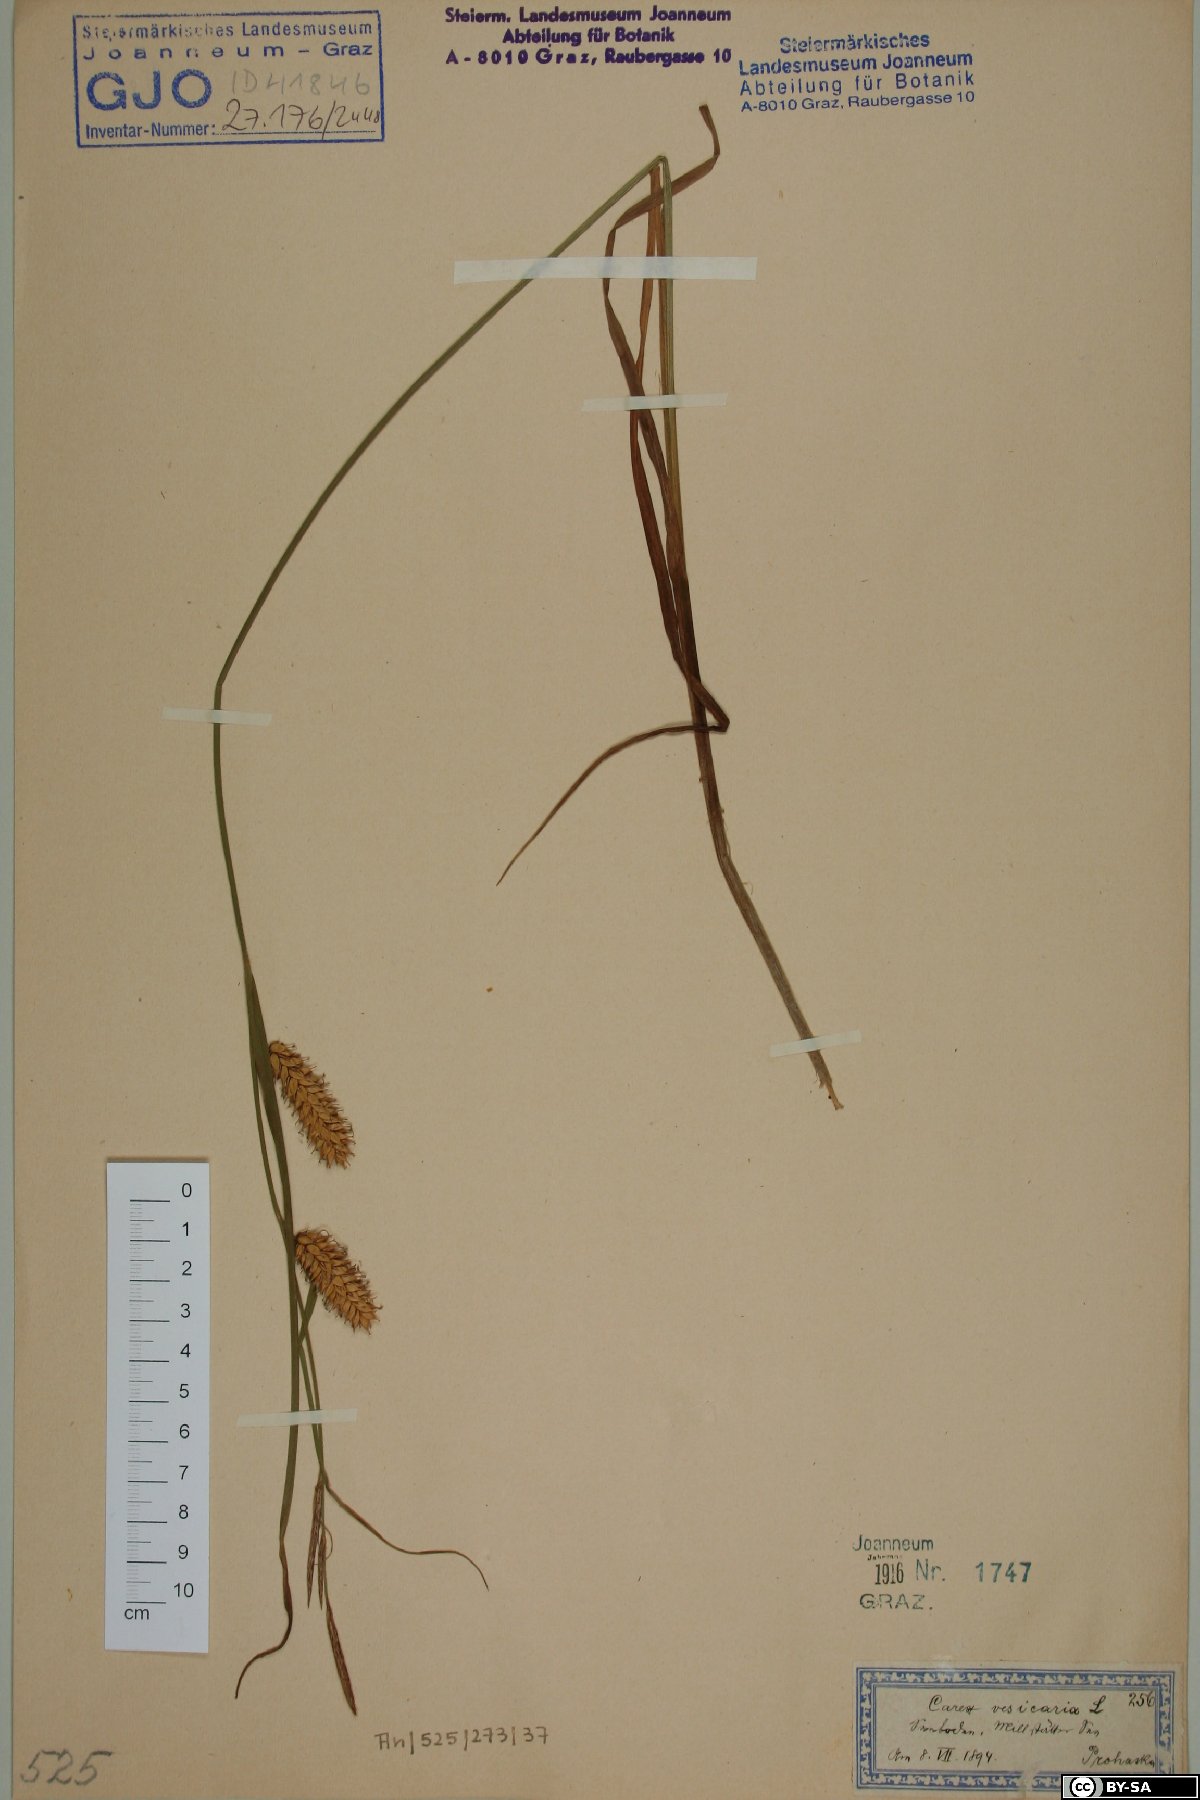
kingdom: Plantae
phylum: Tracheophyta
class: Liliopsida
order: Poales
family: Cyperaceae
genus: Carex
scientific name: Carex vesicaria
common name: Bladder-sedge
